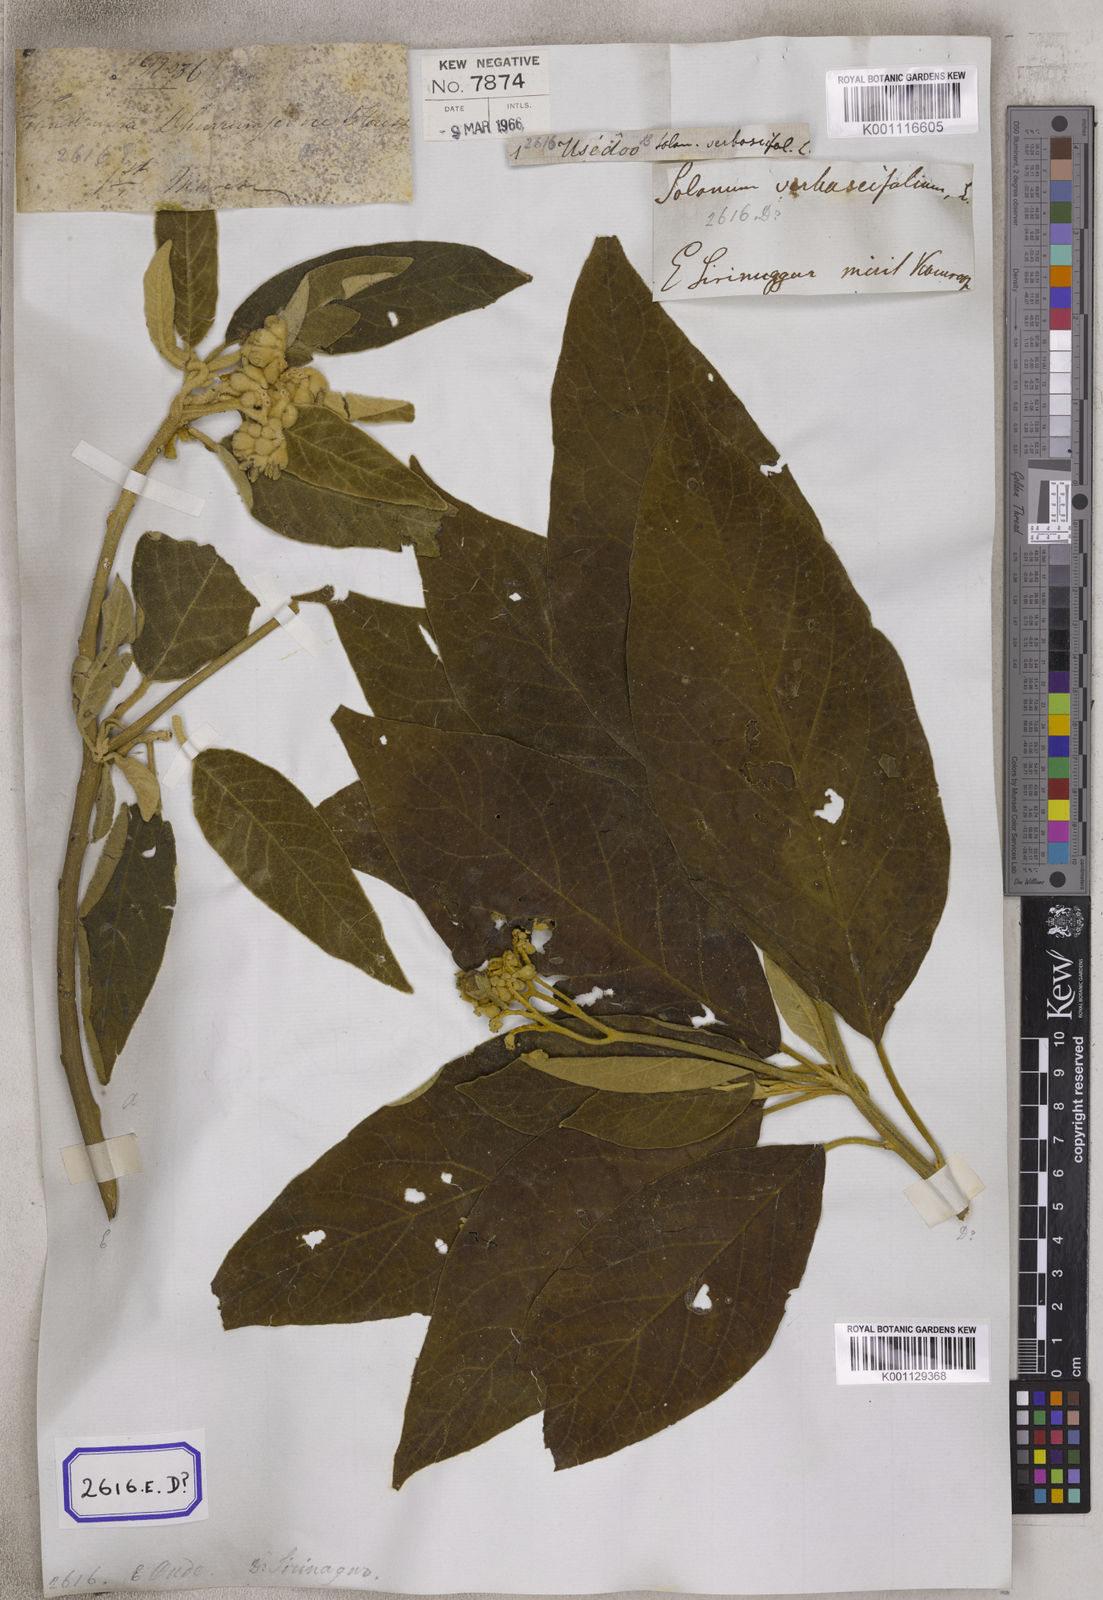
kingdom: Plantae
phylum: Tracheophyta
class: Magnoliopsida
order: Solanales
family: Solanaceae
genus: Solanum
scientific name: Solanum donianum
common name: Mullein nightshade
